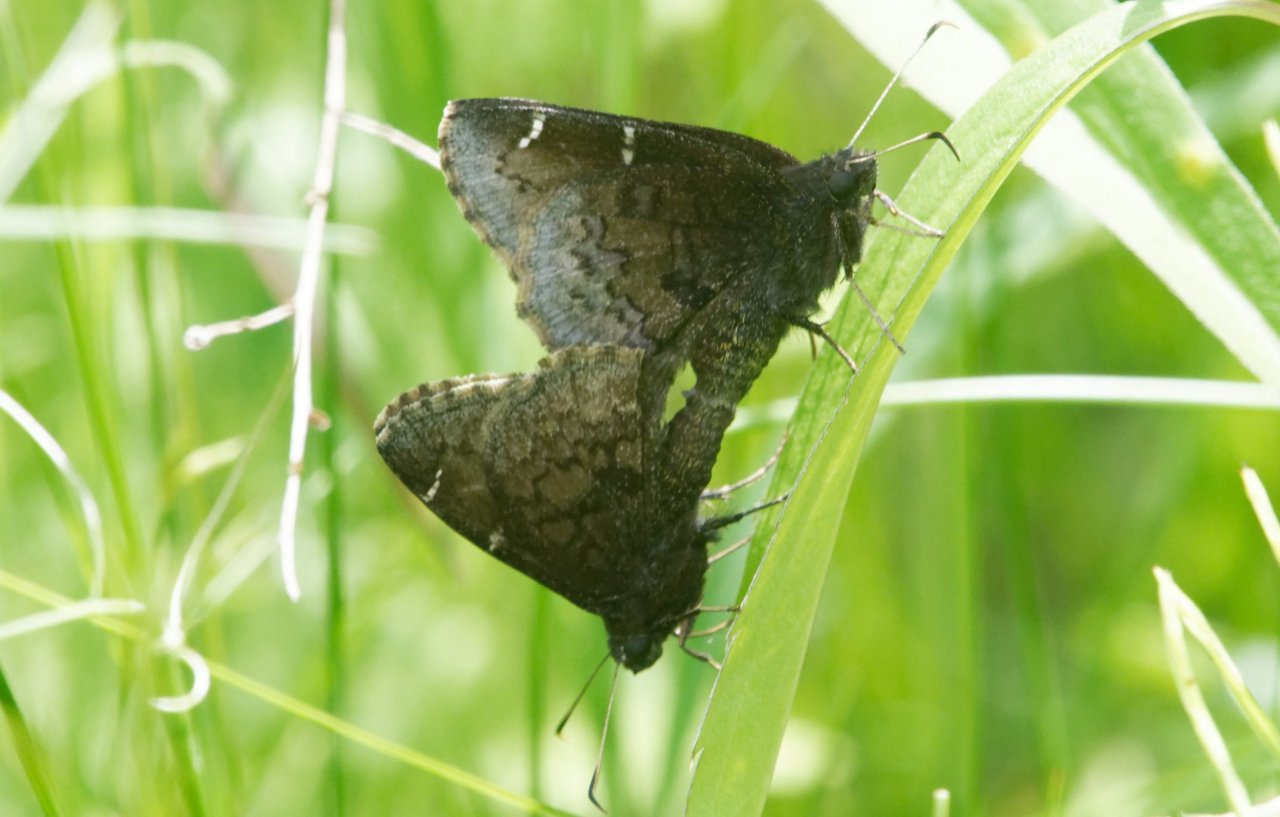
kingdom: Animalia
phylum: Arthropoda
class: Insecta
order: Lepidoptera
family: Hesperiidae
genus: Autochton
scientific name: Autochton
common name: Northern Cloudywing
